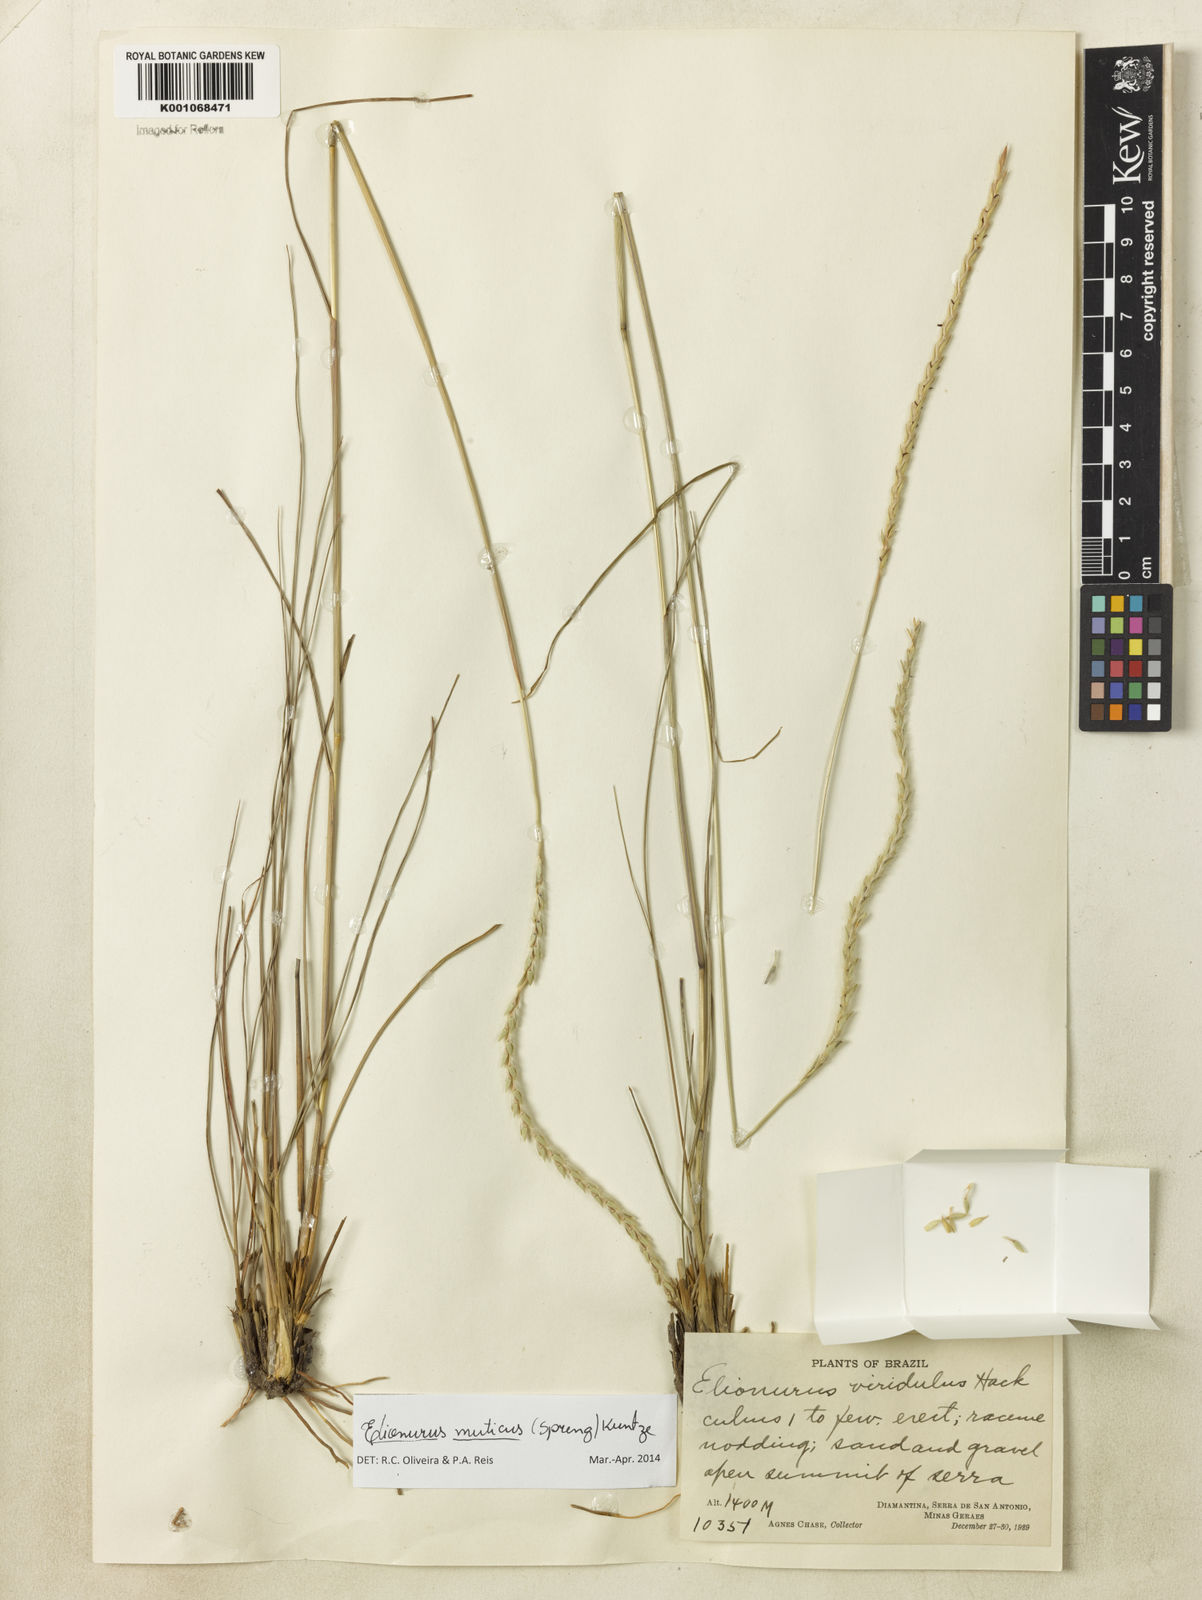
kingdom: Plantae
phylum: Tracheophyta
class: Liliopsida
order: Poales
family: Poaceae
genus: Elionurus
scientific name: Elionurus muticus
